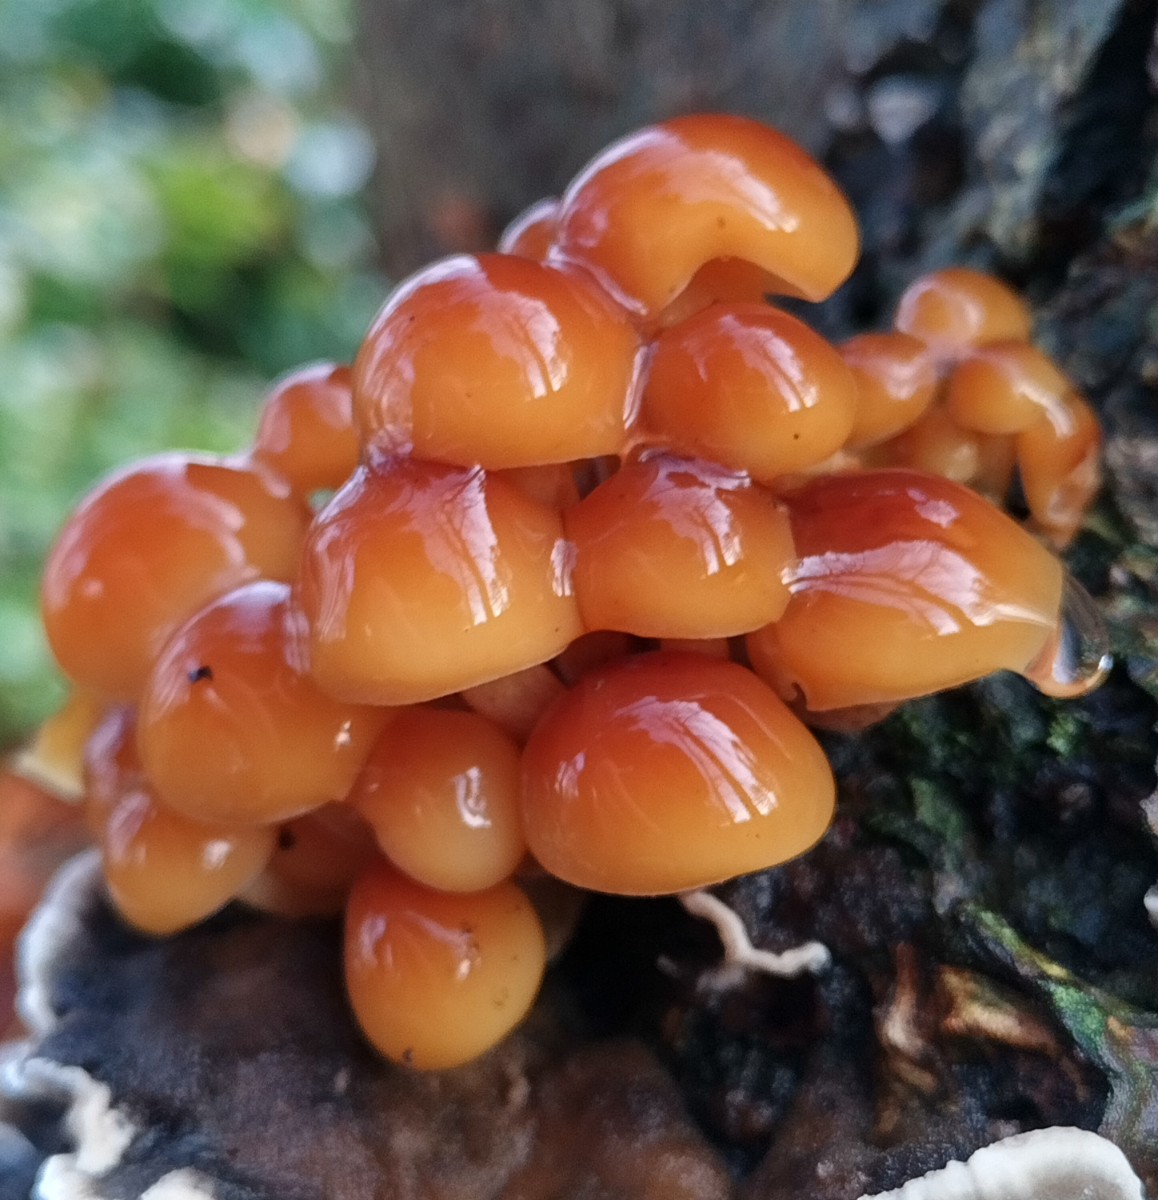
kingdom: Fungi
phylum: Basidiomycota
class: Agaricomycetes
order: Agaricales
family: Physalacriaceae
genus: Flammulina
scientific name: Flammulina velutipes
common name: gul fløjlsfod
